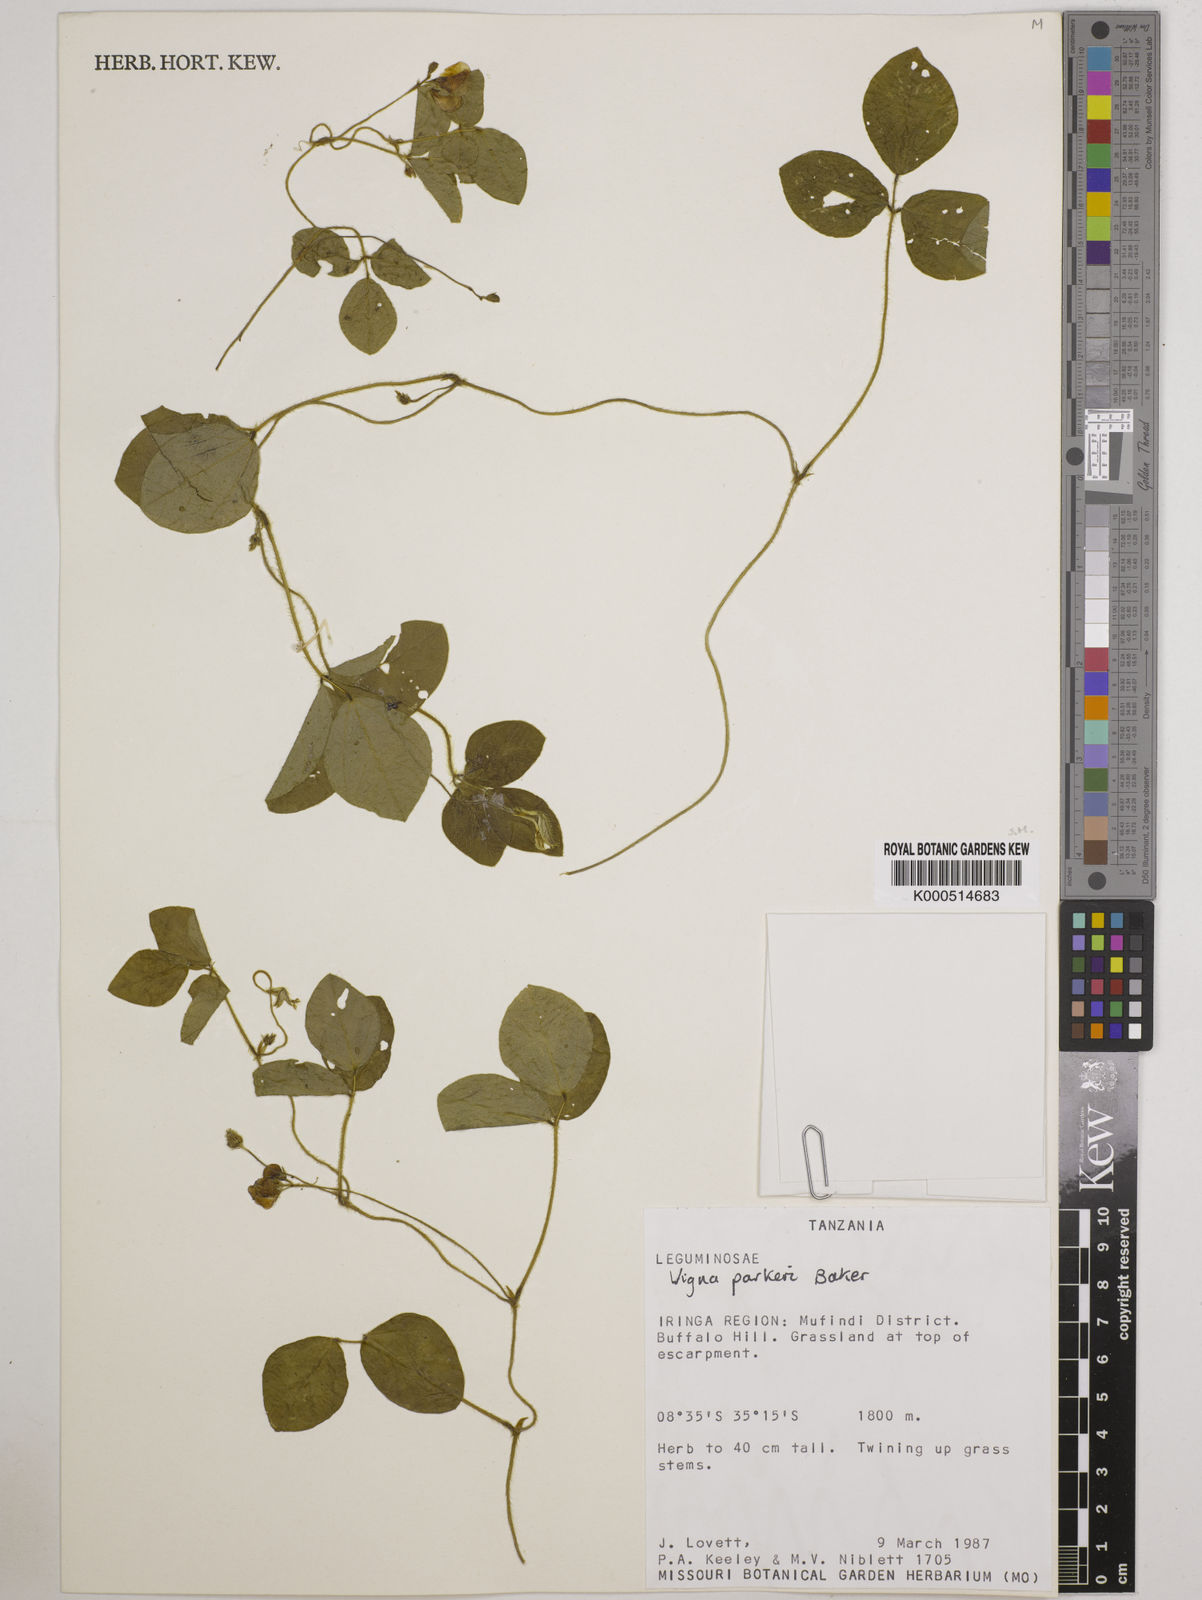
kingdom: Plantae
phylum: Tracheophyta
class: Magnoliopsida
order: Fabales
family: Fabaceae
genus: Vigna
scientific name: Vigna parkeri
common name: Creeping vigna
